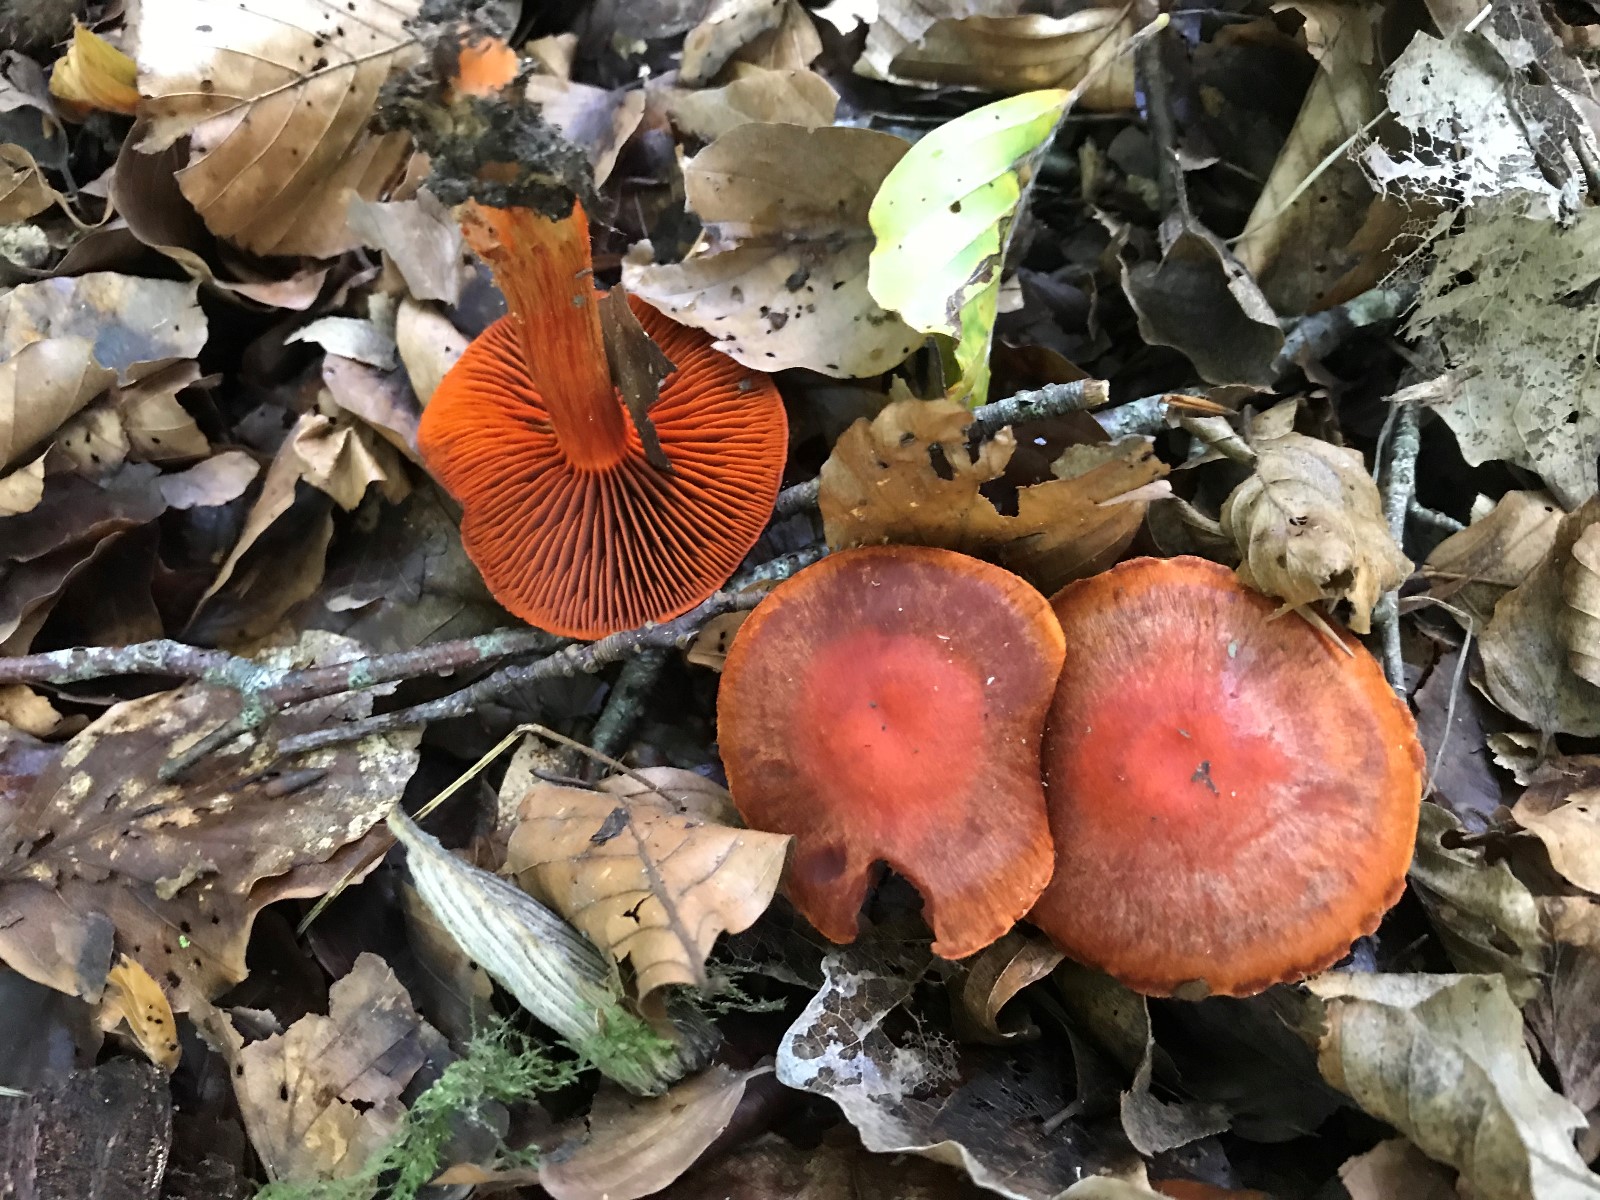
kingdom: Fungi
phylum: Basidiomycota
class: Agaricomycetes
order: Agaricales
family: Cortinariaceae
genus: Cortinarius
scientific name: Cortinarius cinnabarinus
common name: cinnober-slørhat
